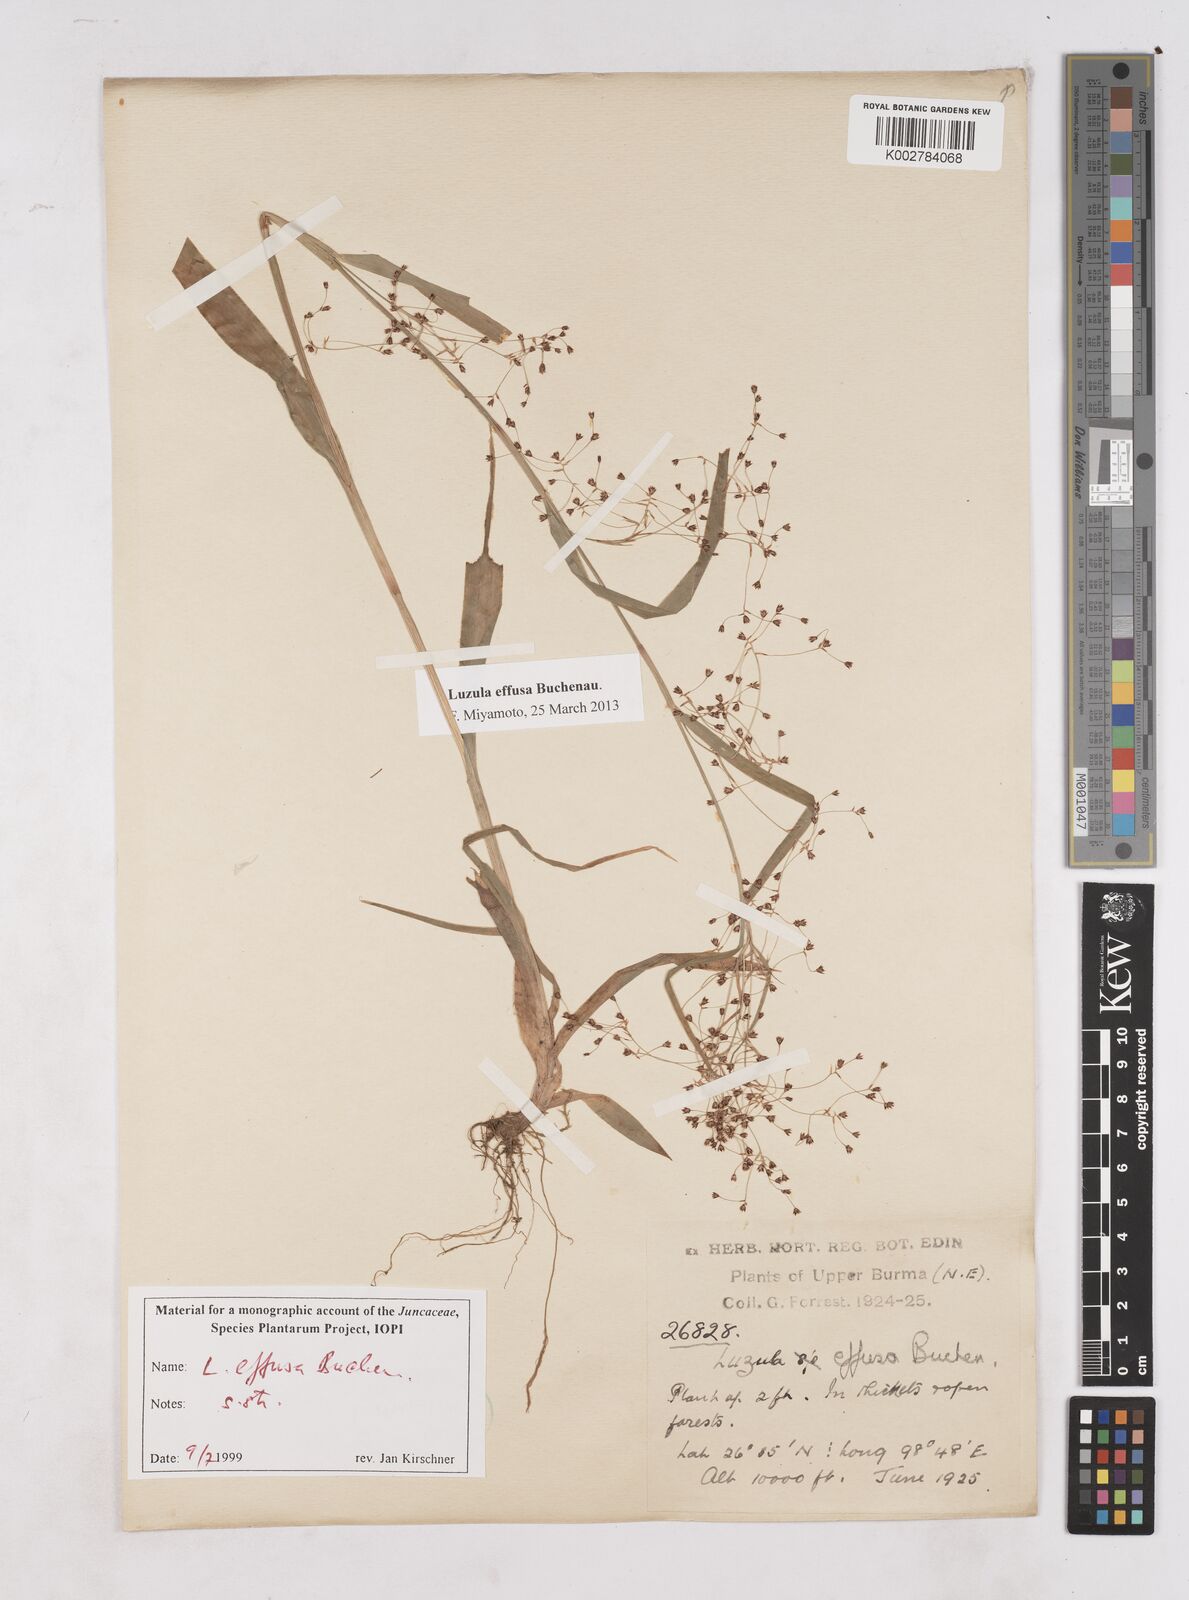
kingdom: Plantae
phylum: Tracheophyta
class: Liliopsida
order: Poales
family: Juncaceae
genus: Luzula
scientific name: Luzula effusa
